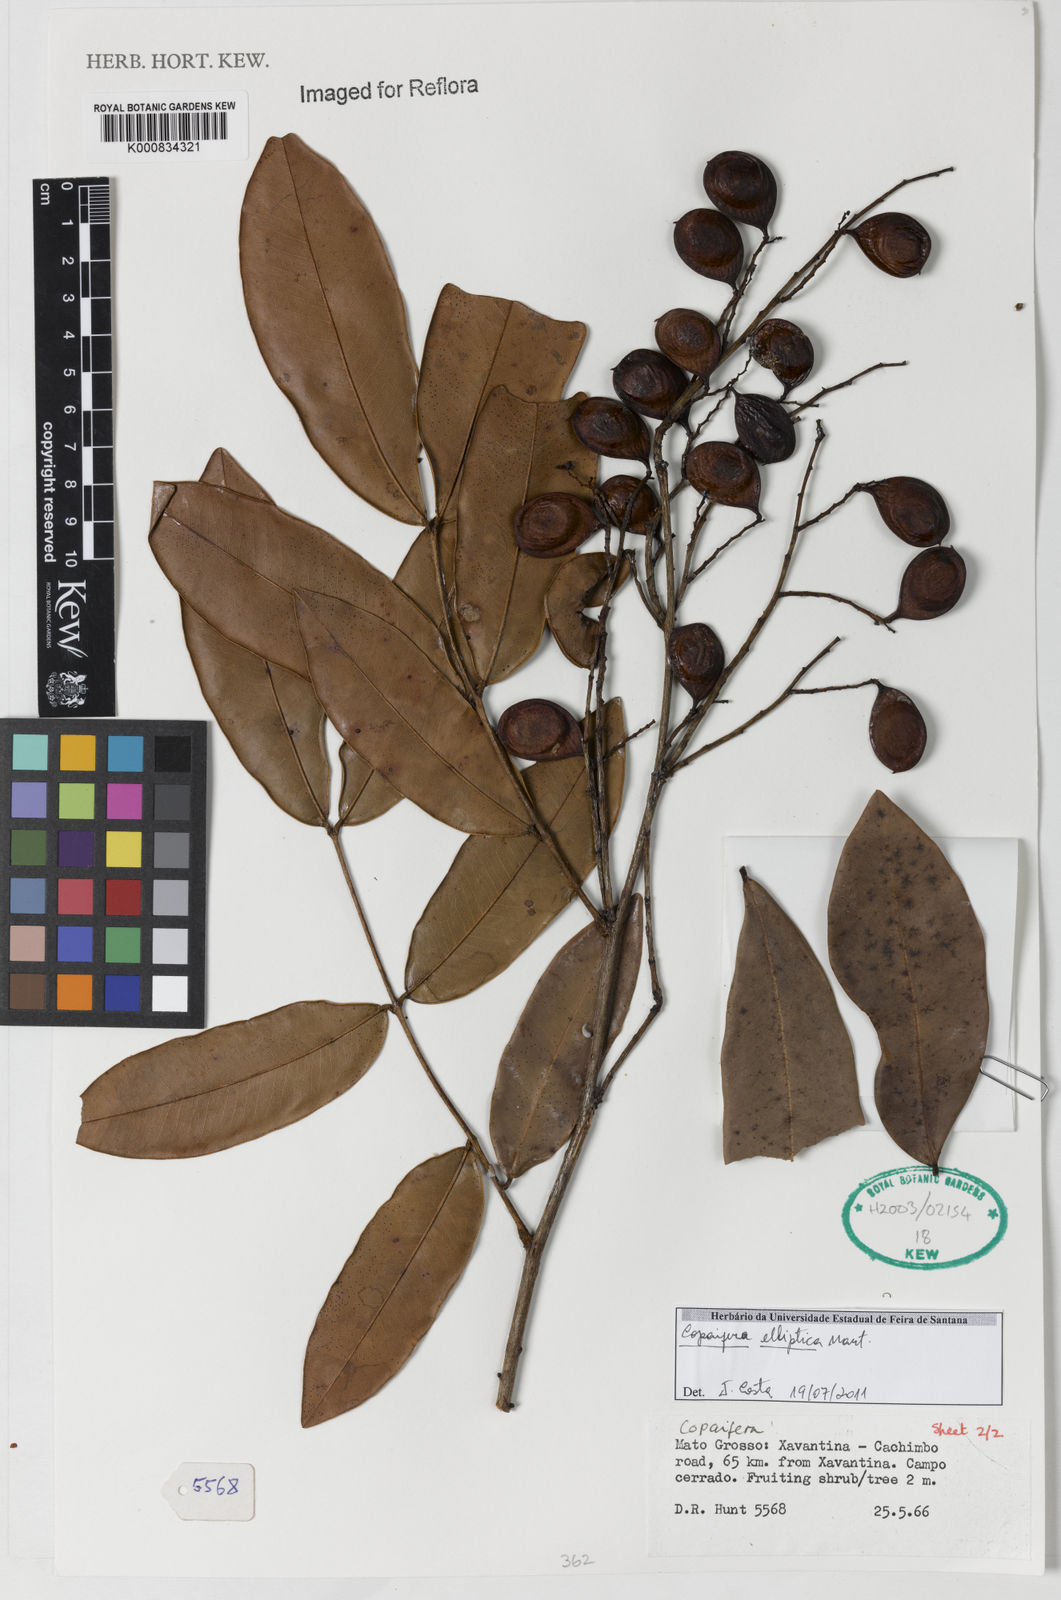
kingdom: Plantae
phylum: Tracheophyta
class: Magnoliopsida
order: Fabales
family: Fabaceae
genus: Copaifera
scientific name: Copaifera elliptica
